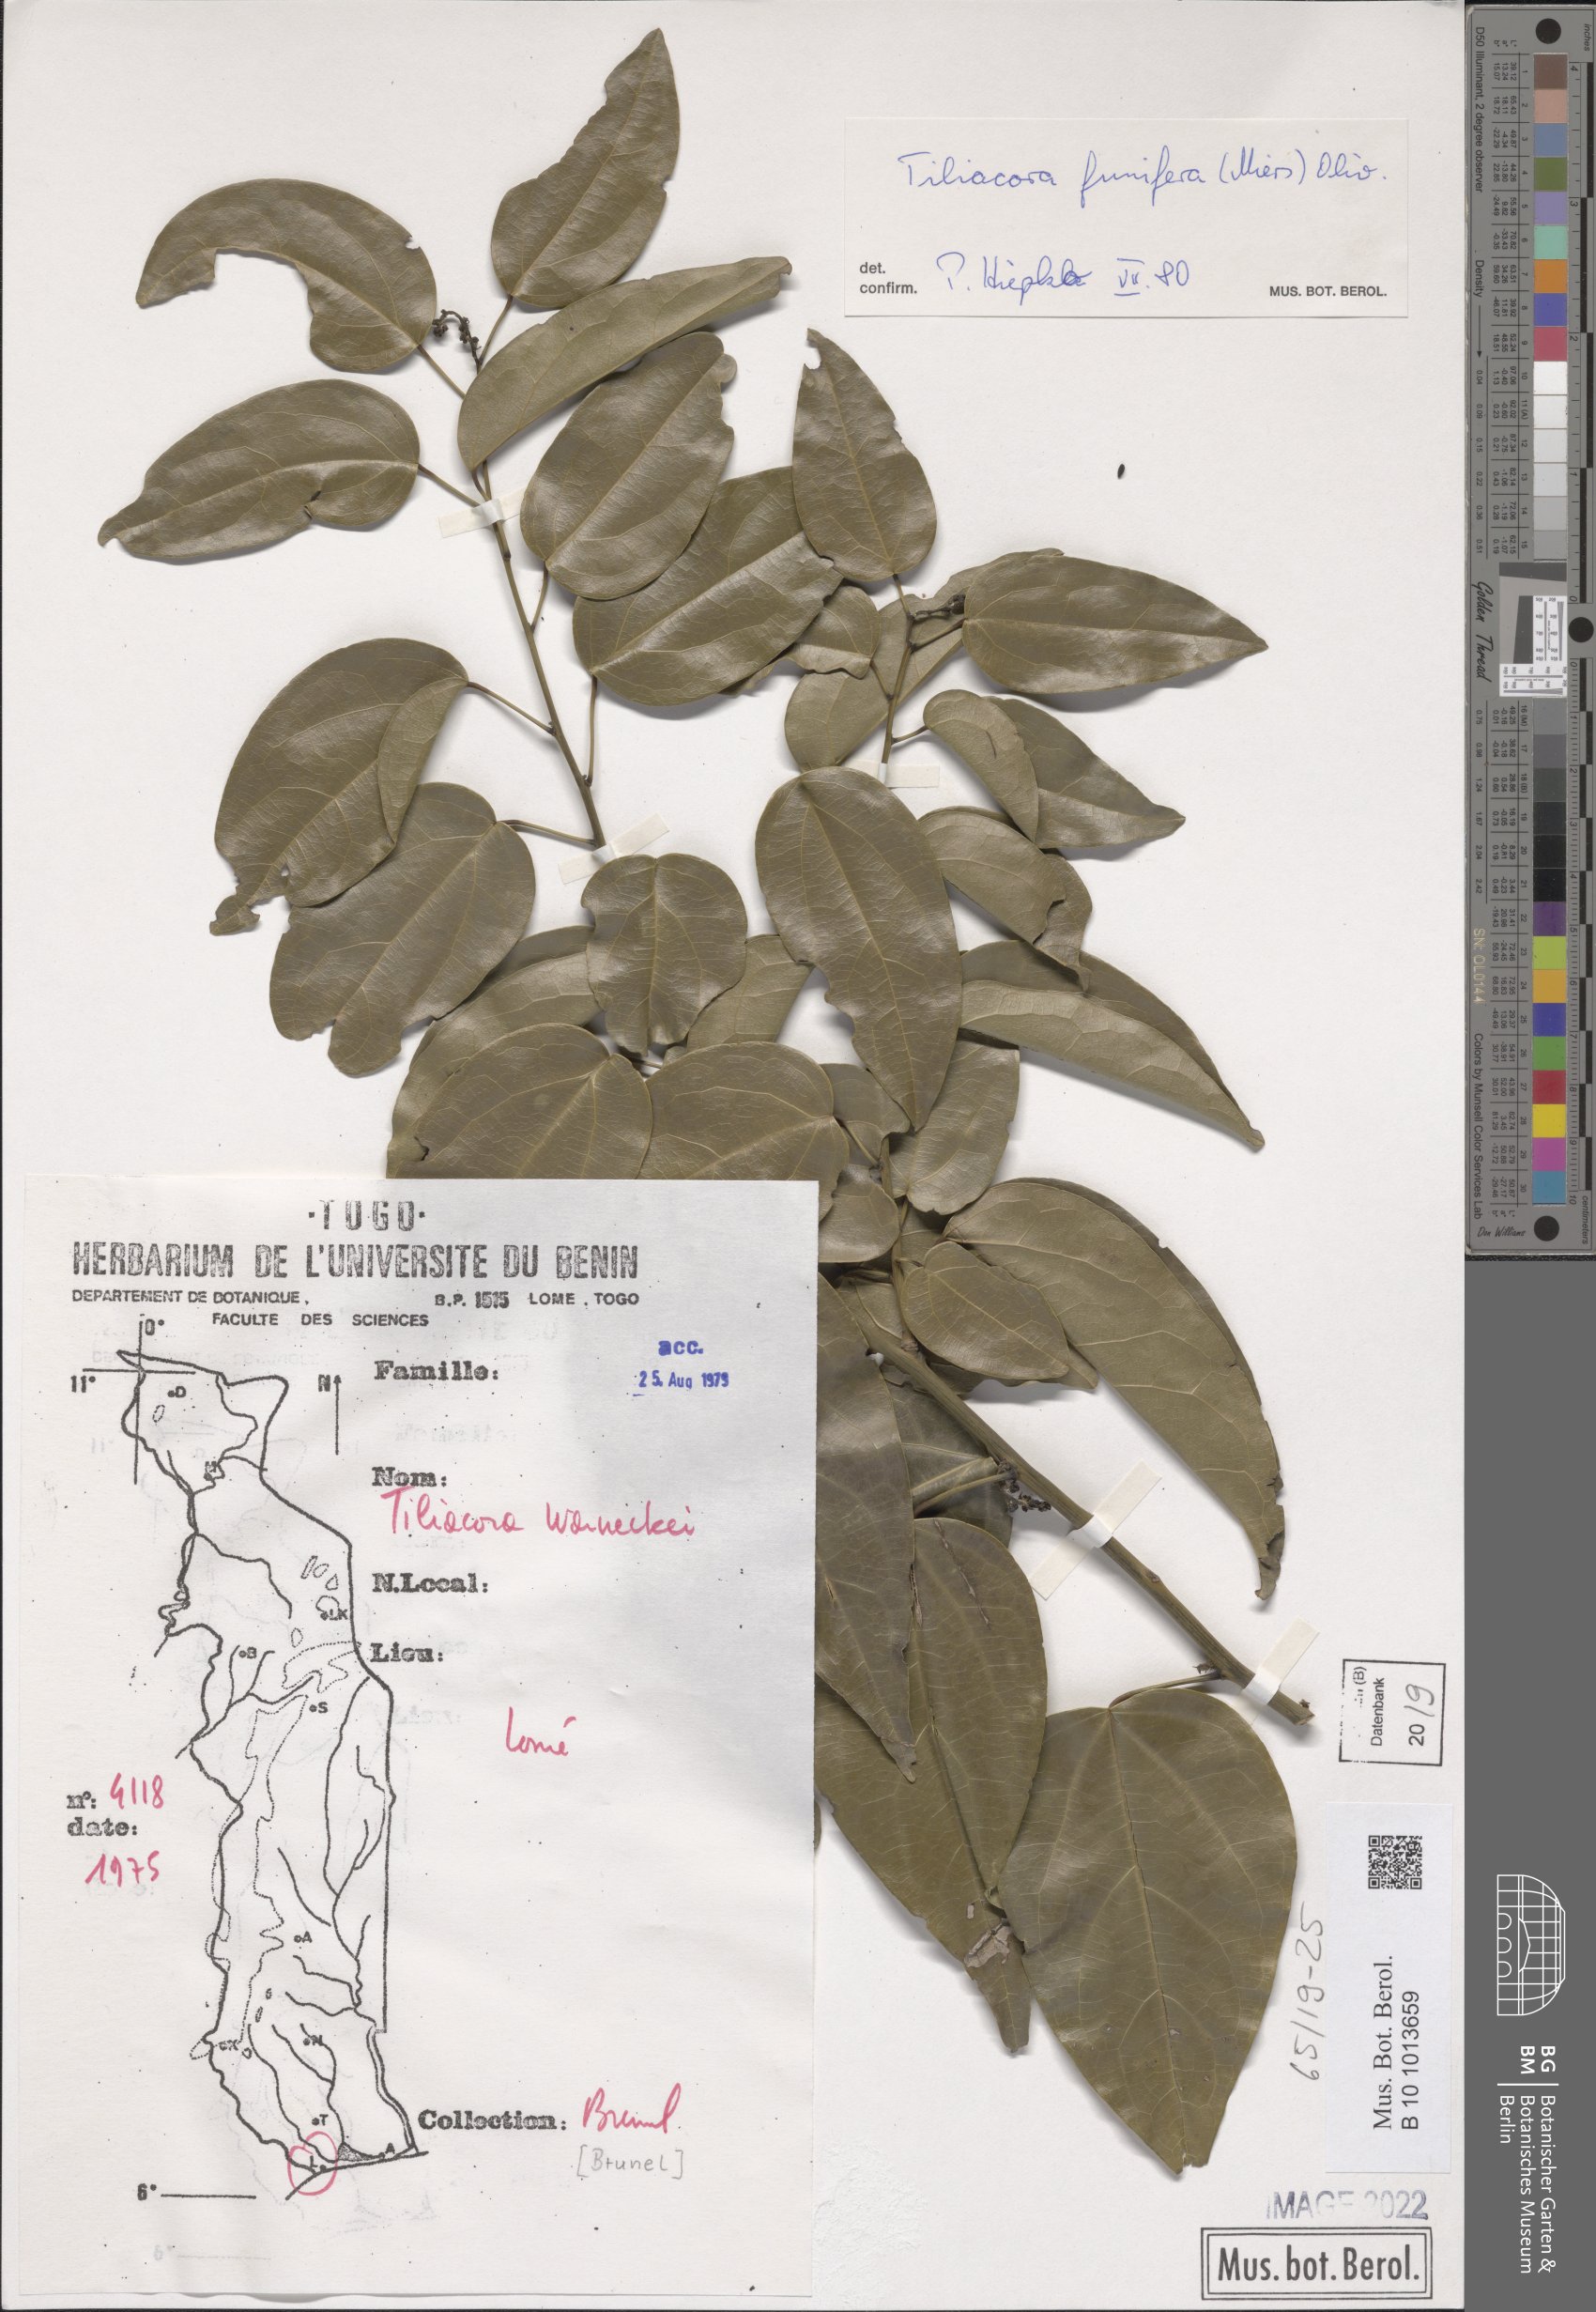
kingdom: Plantae
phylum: Tracheophyta
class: Magnoliopsida
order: Ranunculales
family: Menispermaceae
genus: Tiliacora
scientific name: Tiliacora funifera
